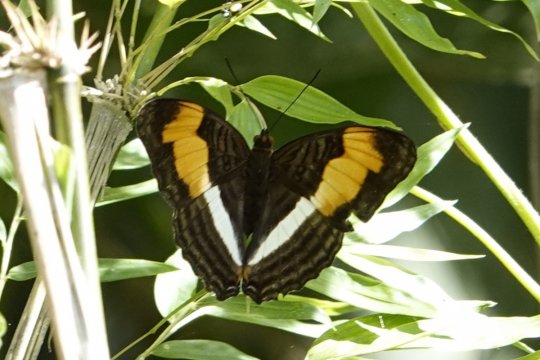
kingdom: Animalia
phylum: Arthropoda
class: Insecta
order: Lepidoptera
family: Nymphalidae
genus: Limenitis
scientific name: Limenitis melona
